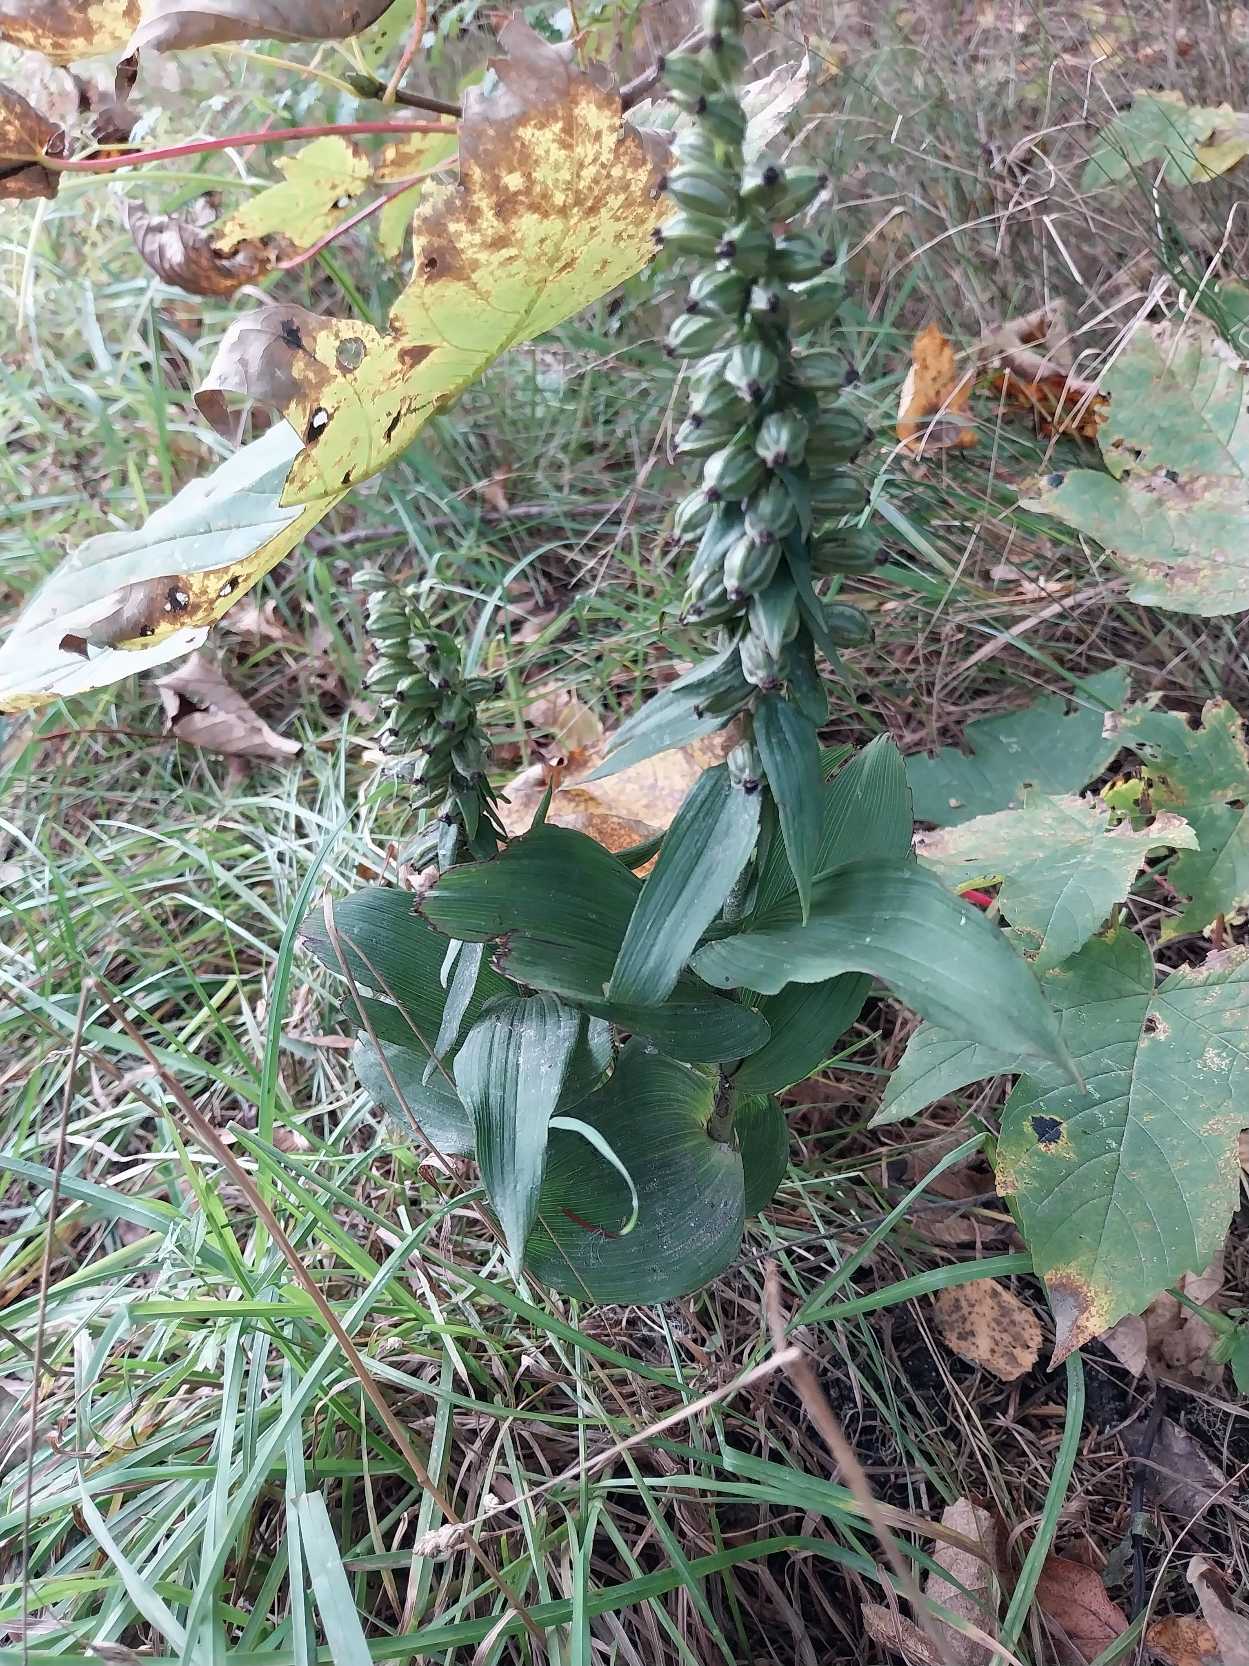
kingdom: Plantae
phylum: Tracheophyta
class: Liliopsida
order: Asparagales
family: Orchidaceae
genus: Epipactis
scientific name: Epipactis helleborine
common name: Skov-hullæbe
